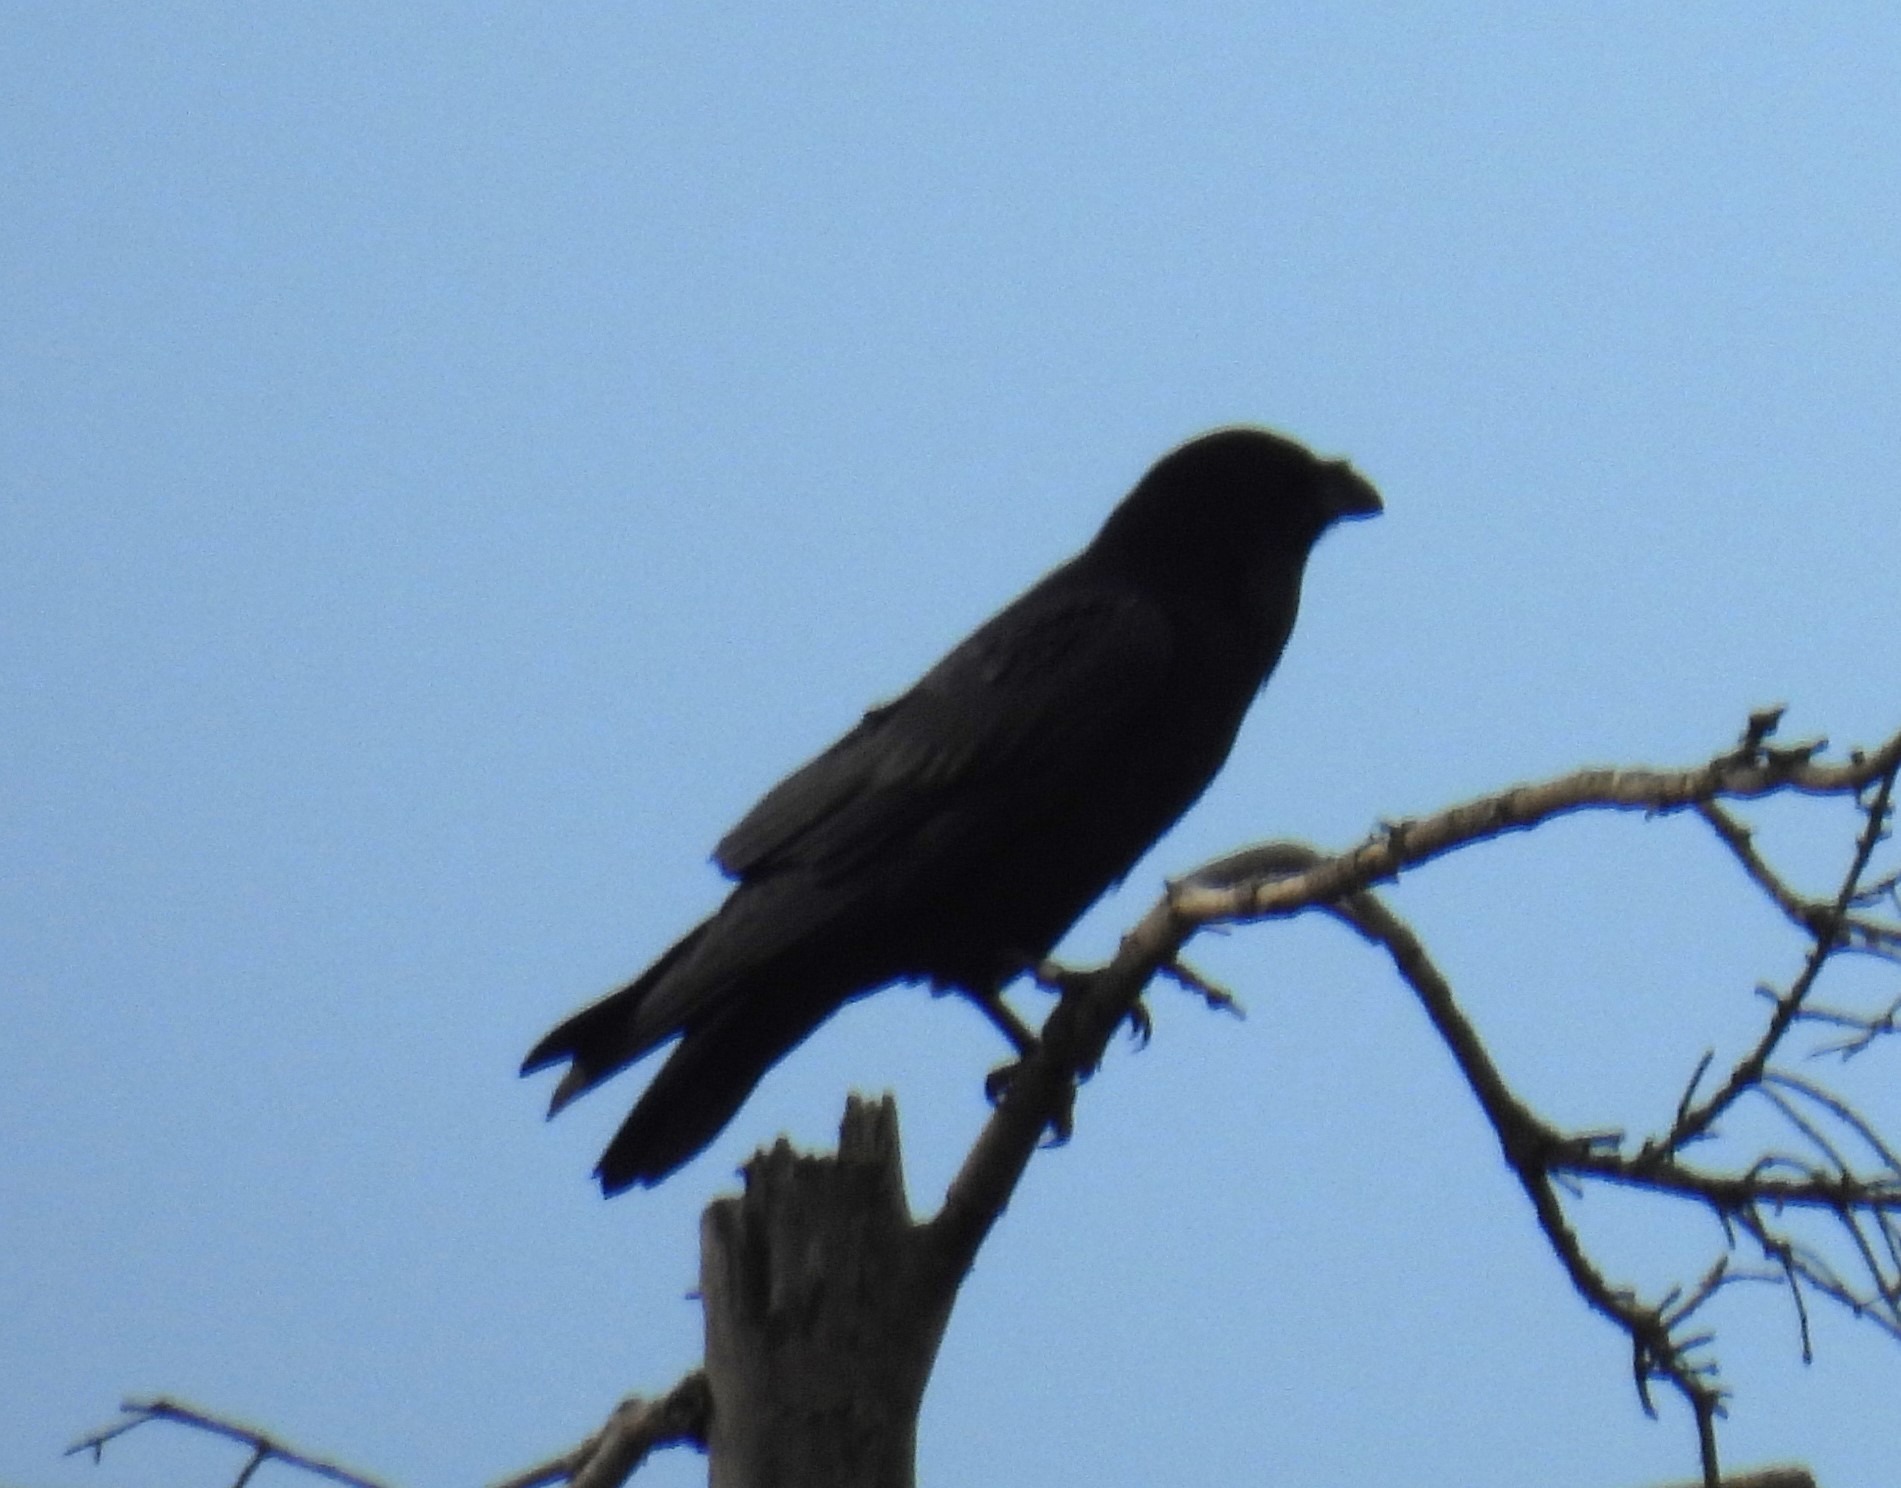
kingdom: Animalia
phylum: Chordata
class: Aves
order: Passeriformes
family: Corvidae
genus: Corvus
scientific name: Corvus corax
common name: Ravn
